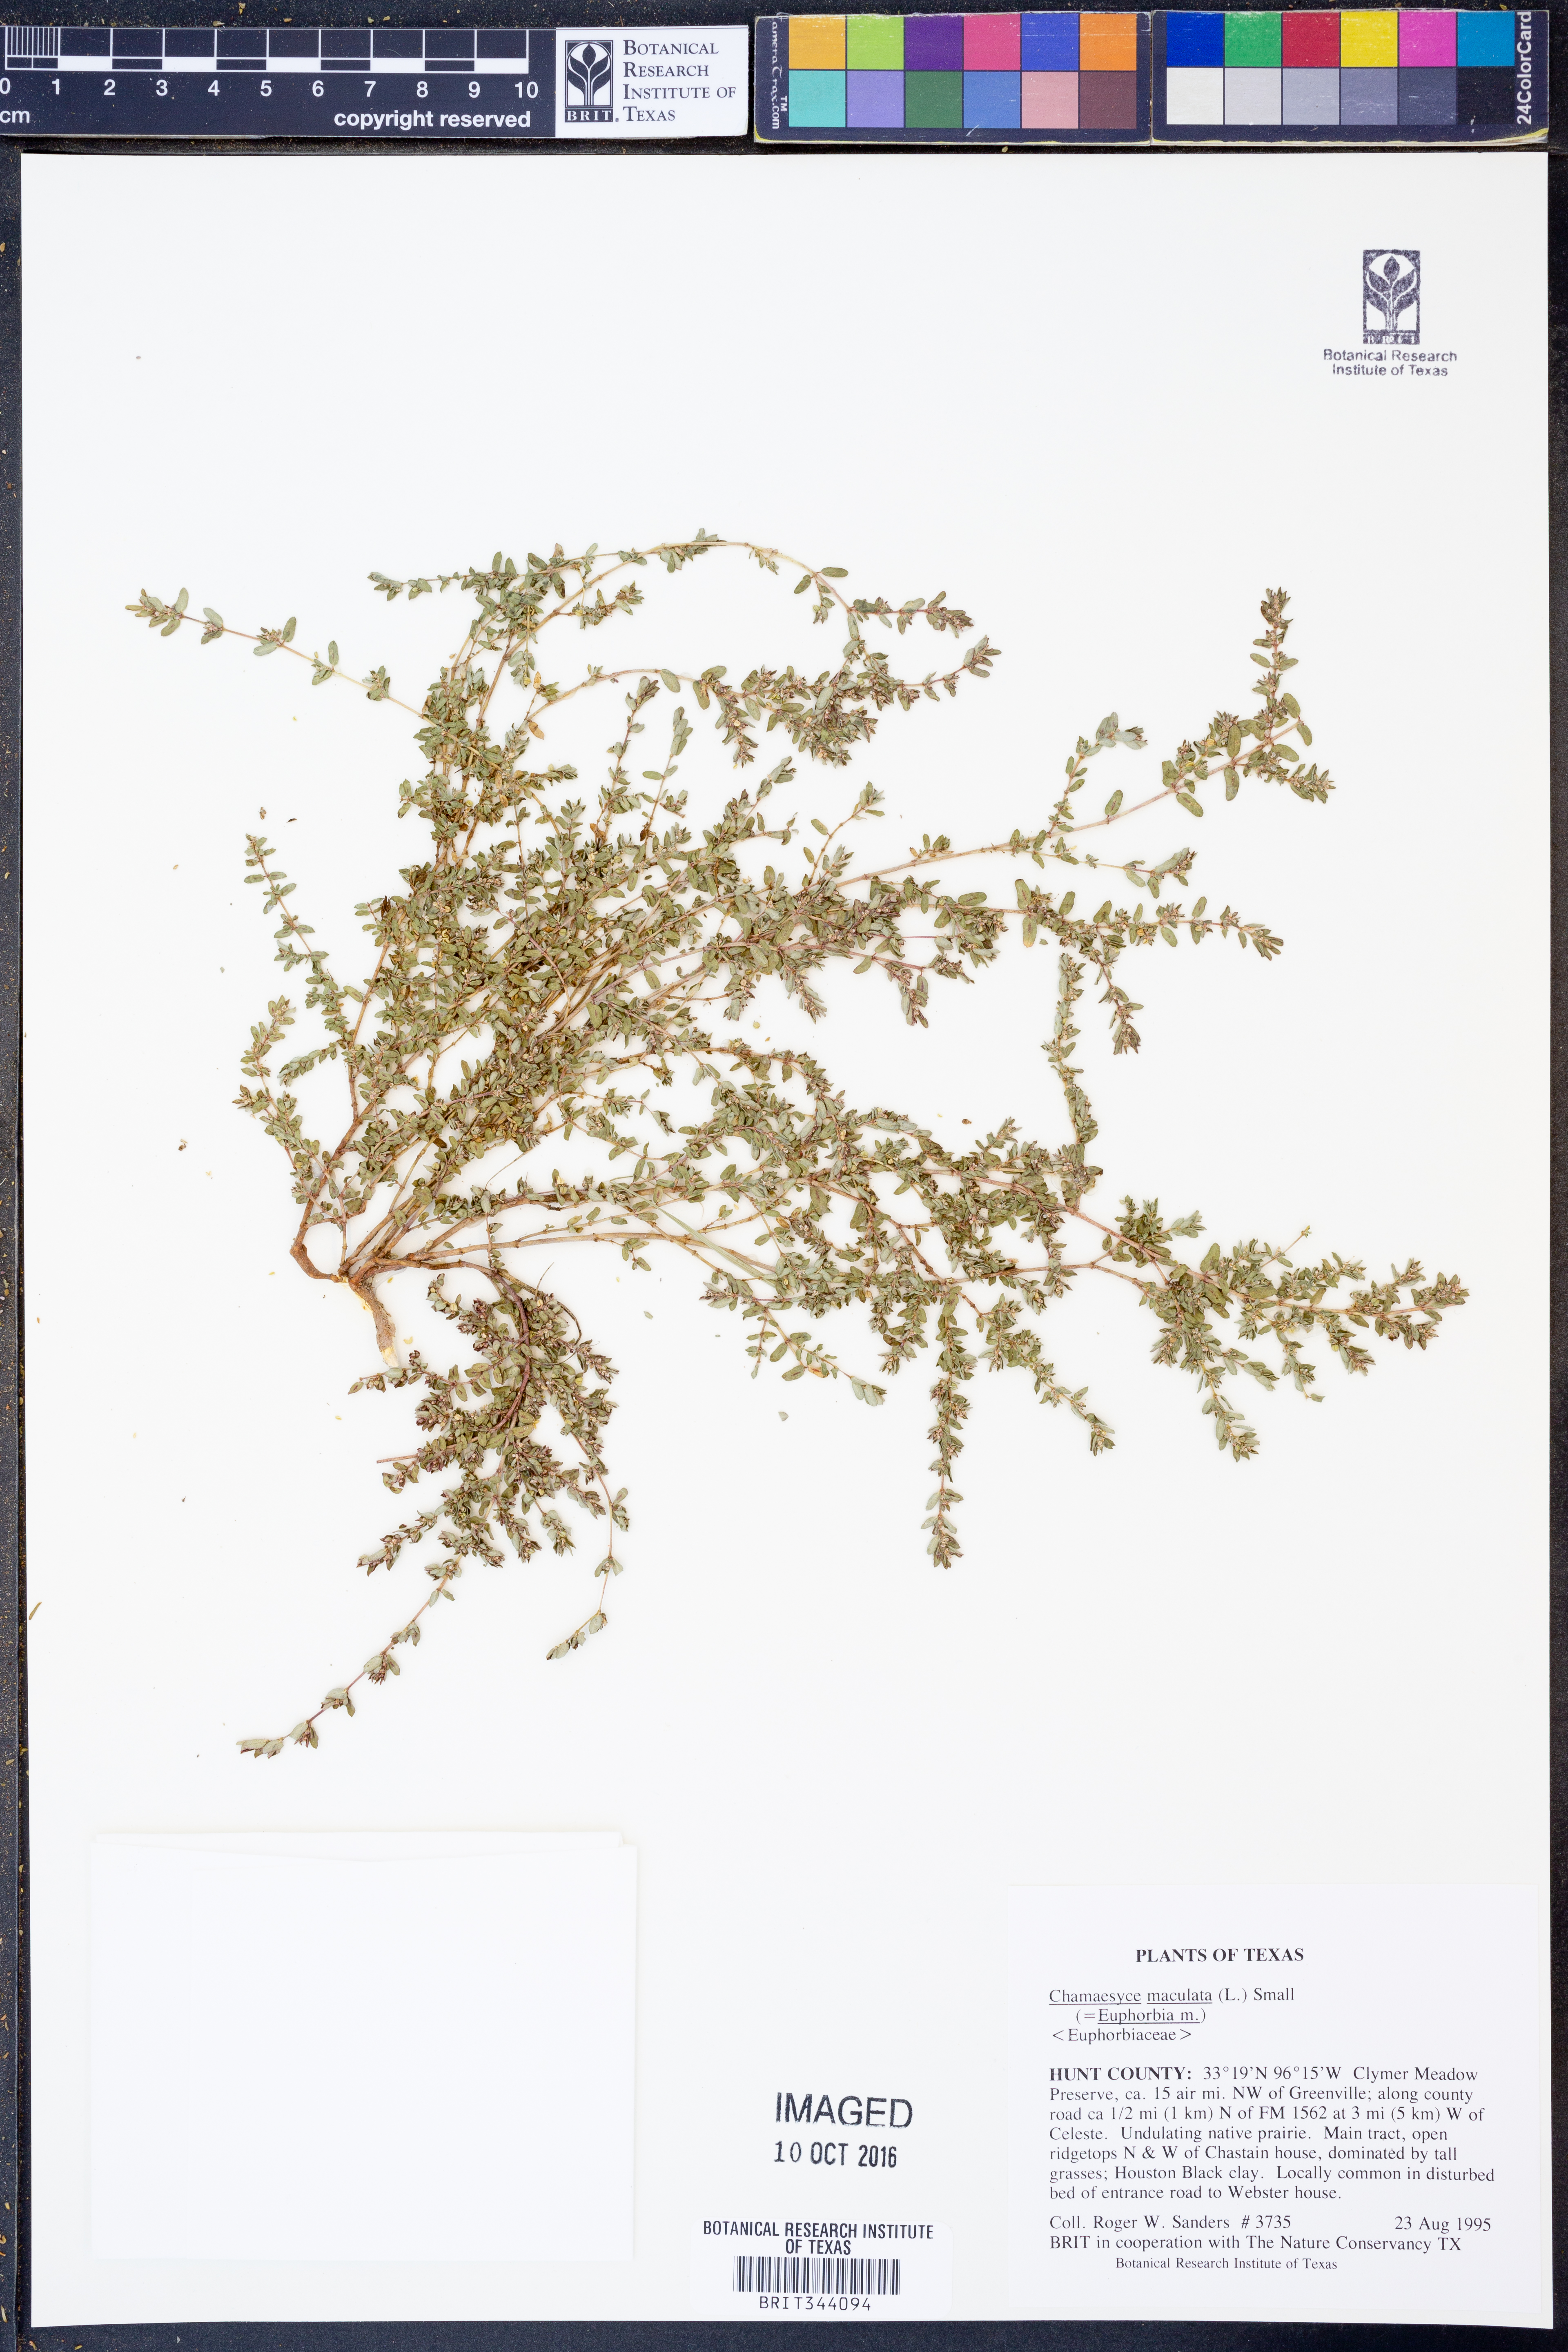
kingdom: Plantae
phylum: Tracheophyta
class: Magnoliopsida
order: Malpighiales
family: Euphorbiaceae
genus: Euphorbia
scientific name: Euphorbia maculata
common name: Spotted spurge
